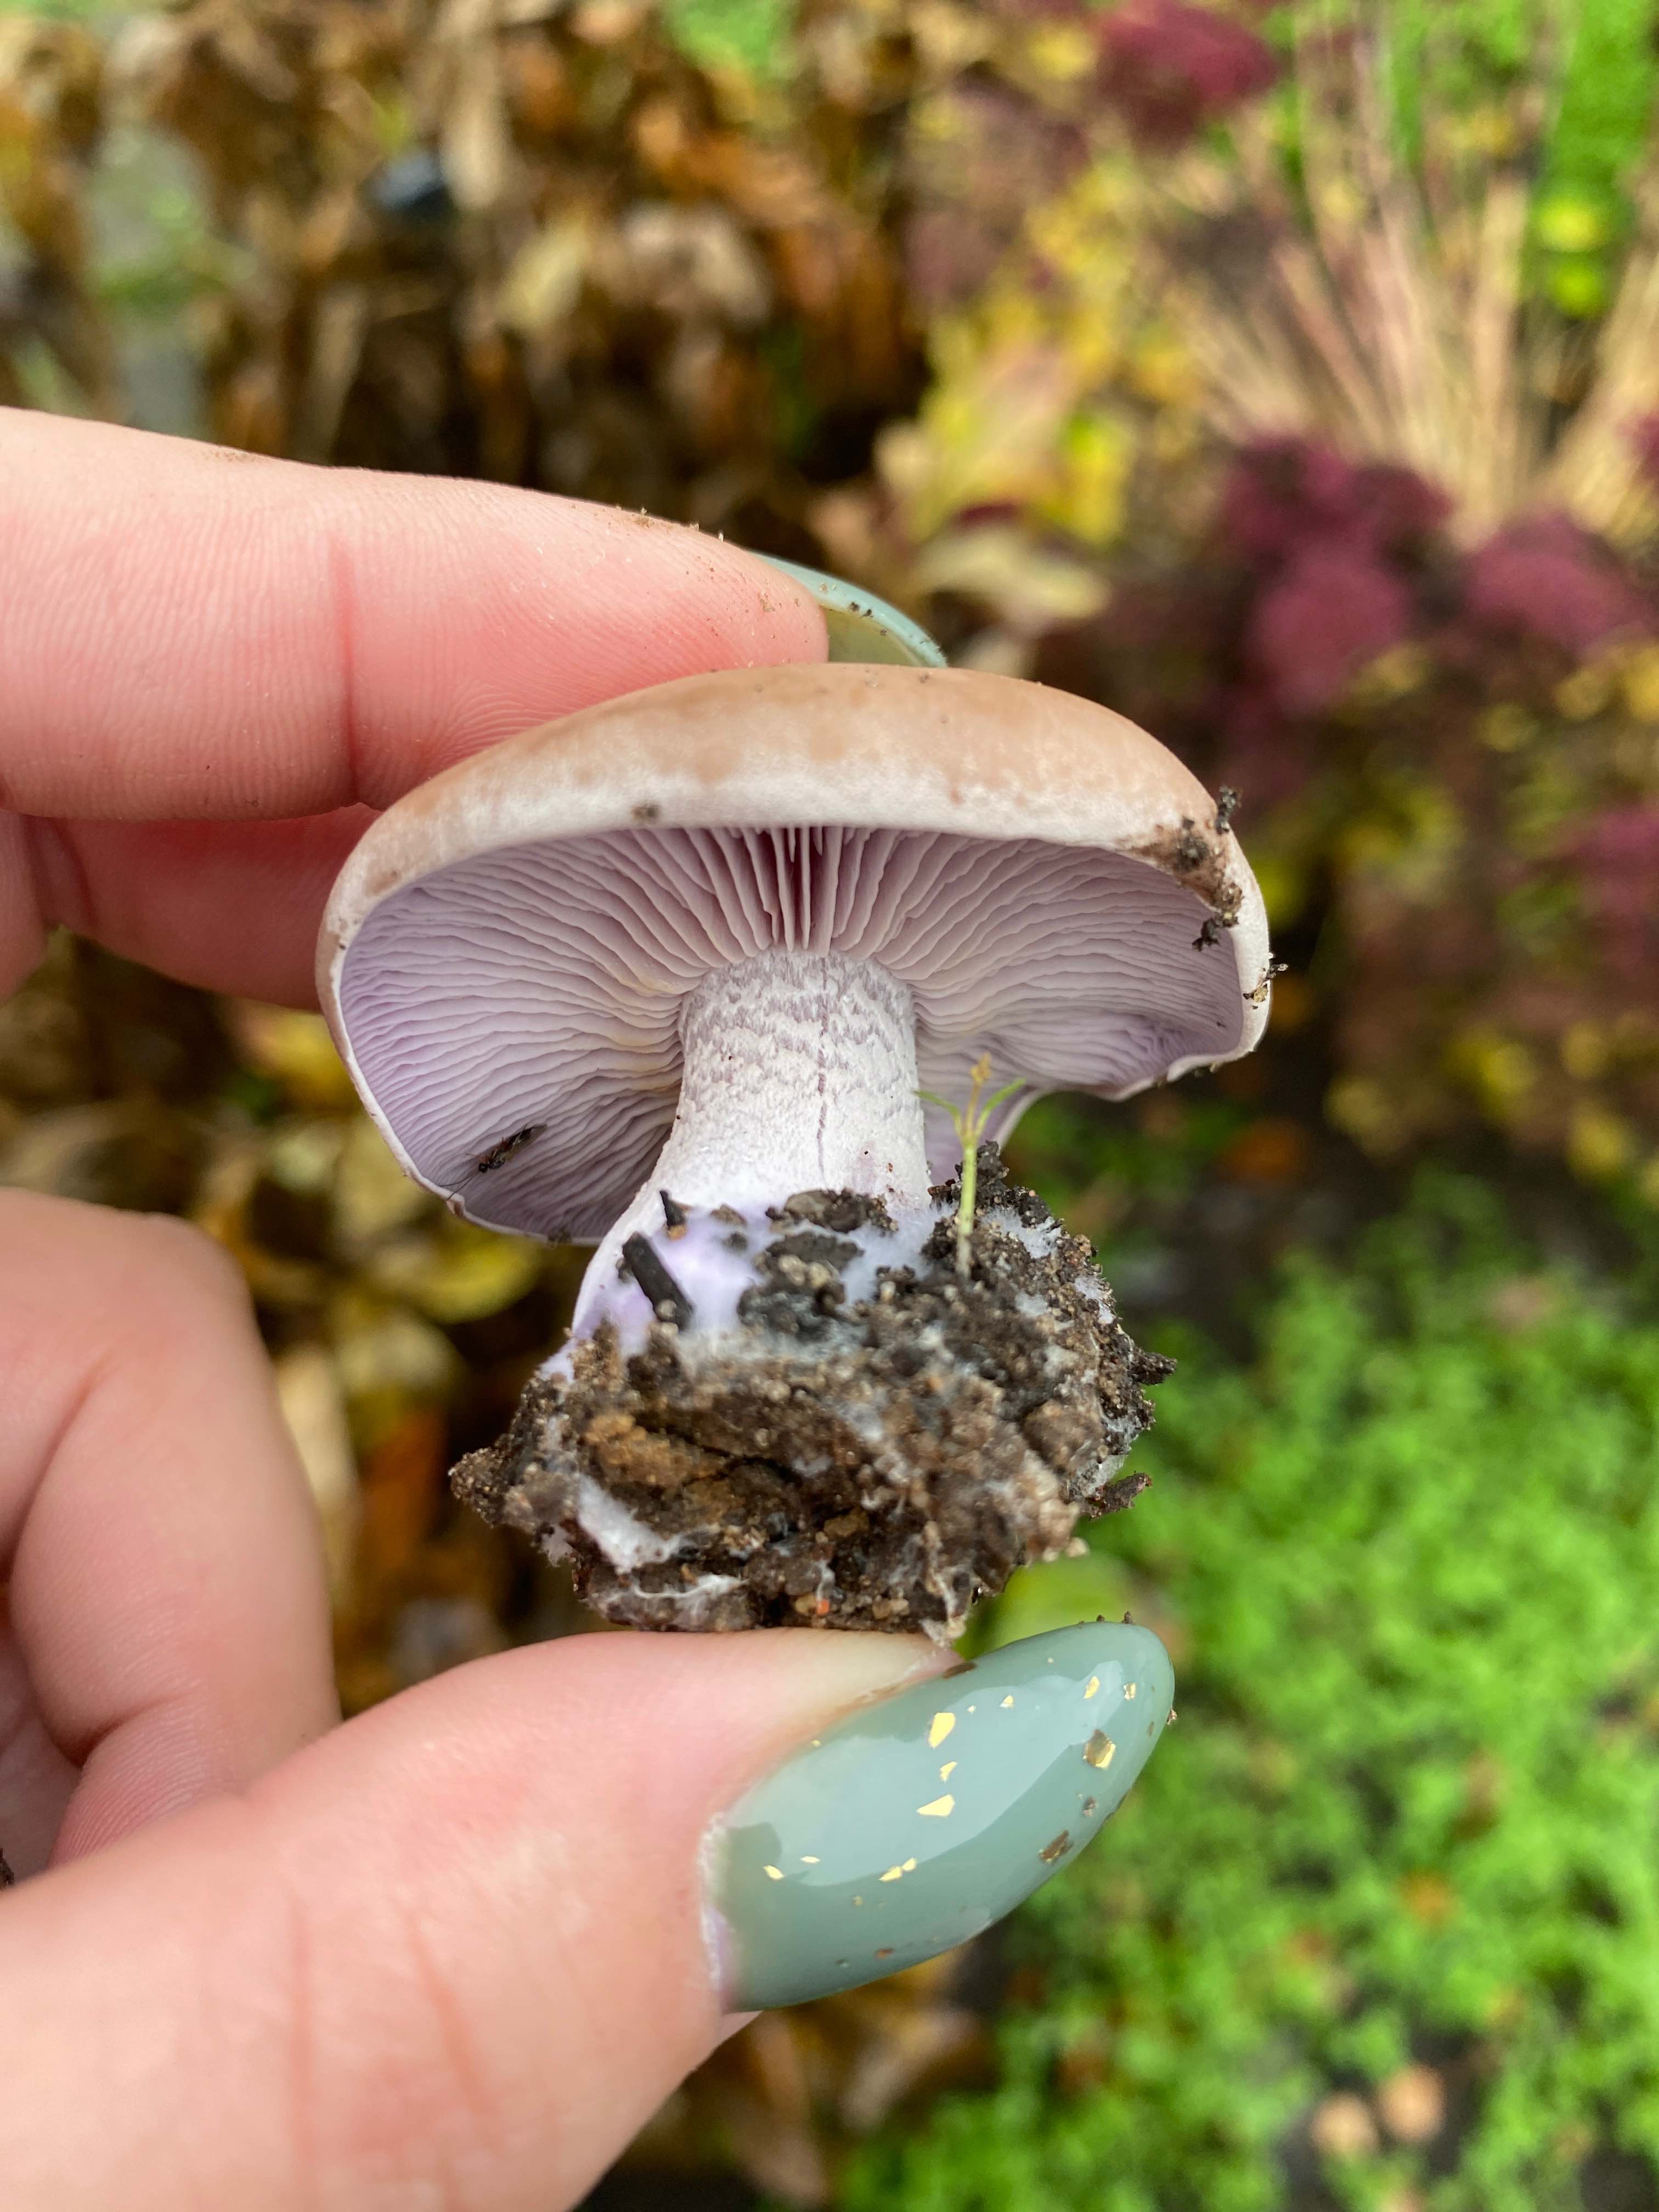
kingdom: Fungi
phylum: Basidiomycota
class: Agaricomycetes
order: Agaricales
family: Tricholomataceae
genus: Lepista
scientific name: Lepista nuda
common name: violet hekseringshat
